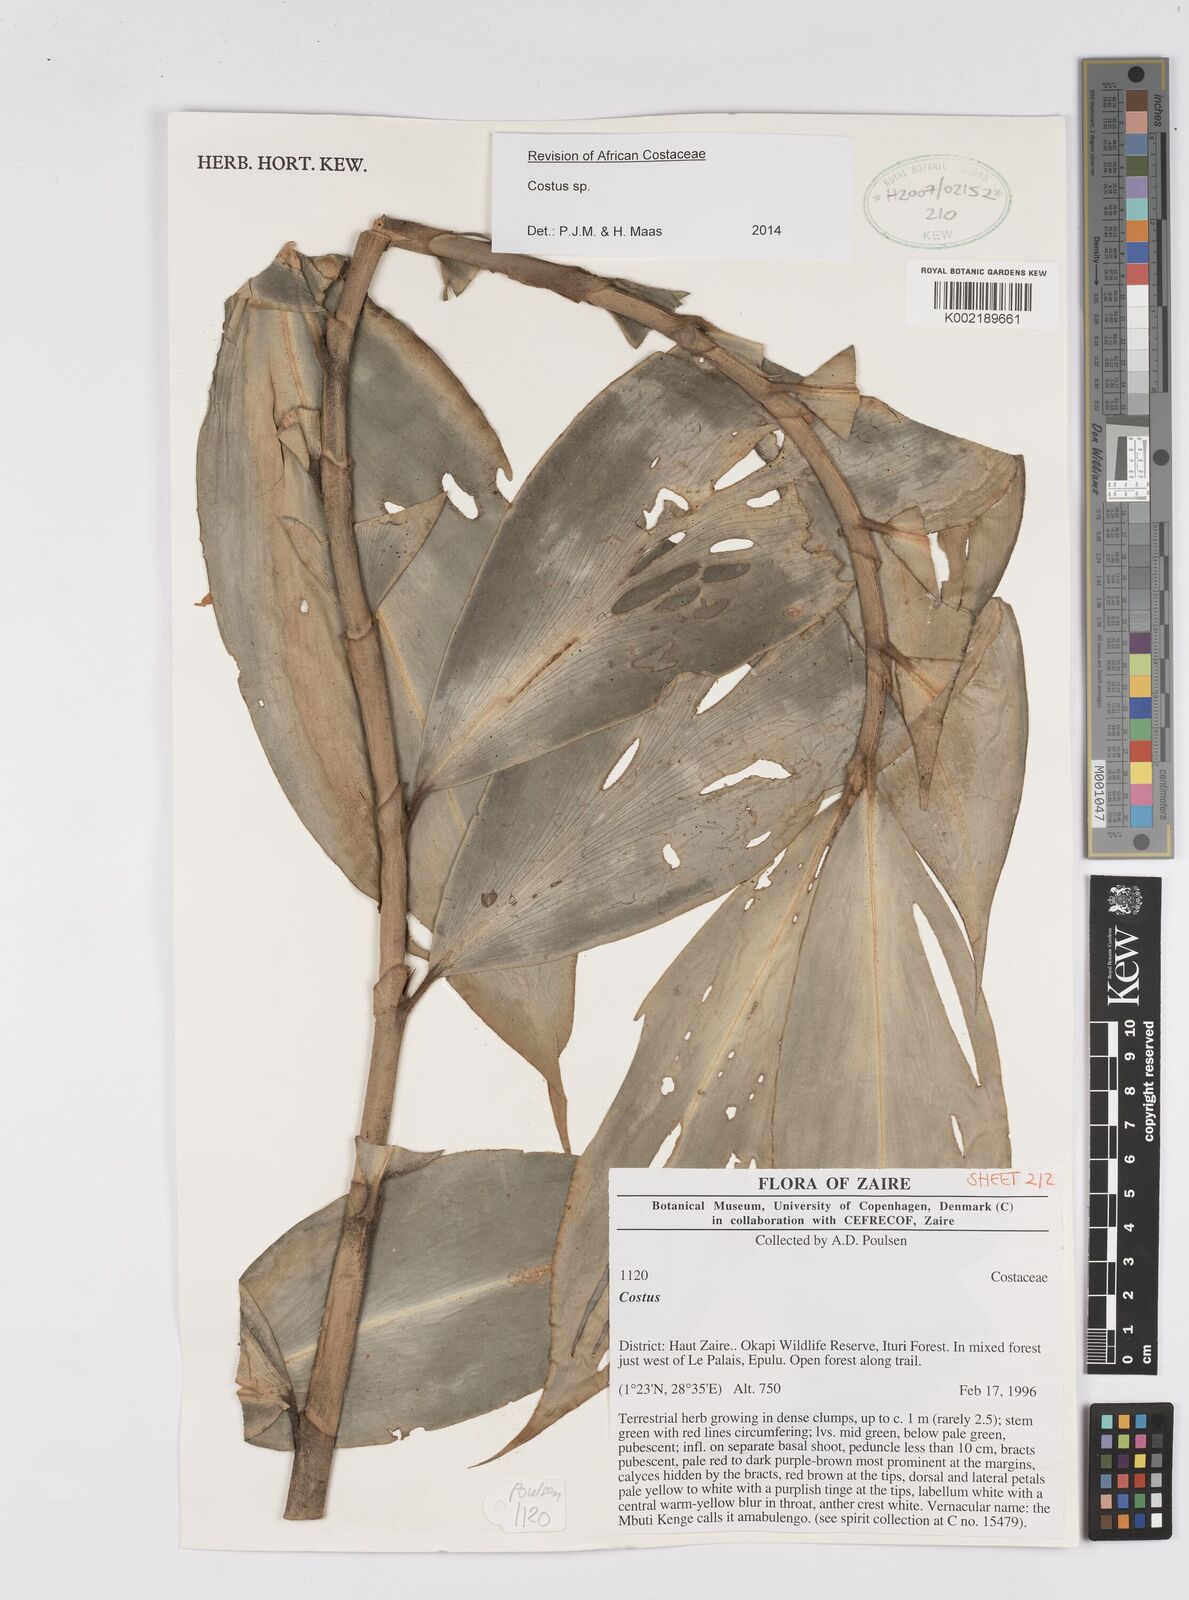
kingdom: Plantae
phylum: Tracheophyta
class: Liliopsida
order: Zingiberales
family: Costaceae
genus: Costus
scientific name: Costus
